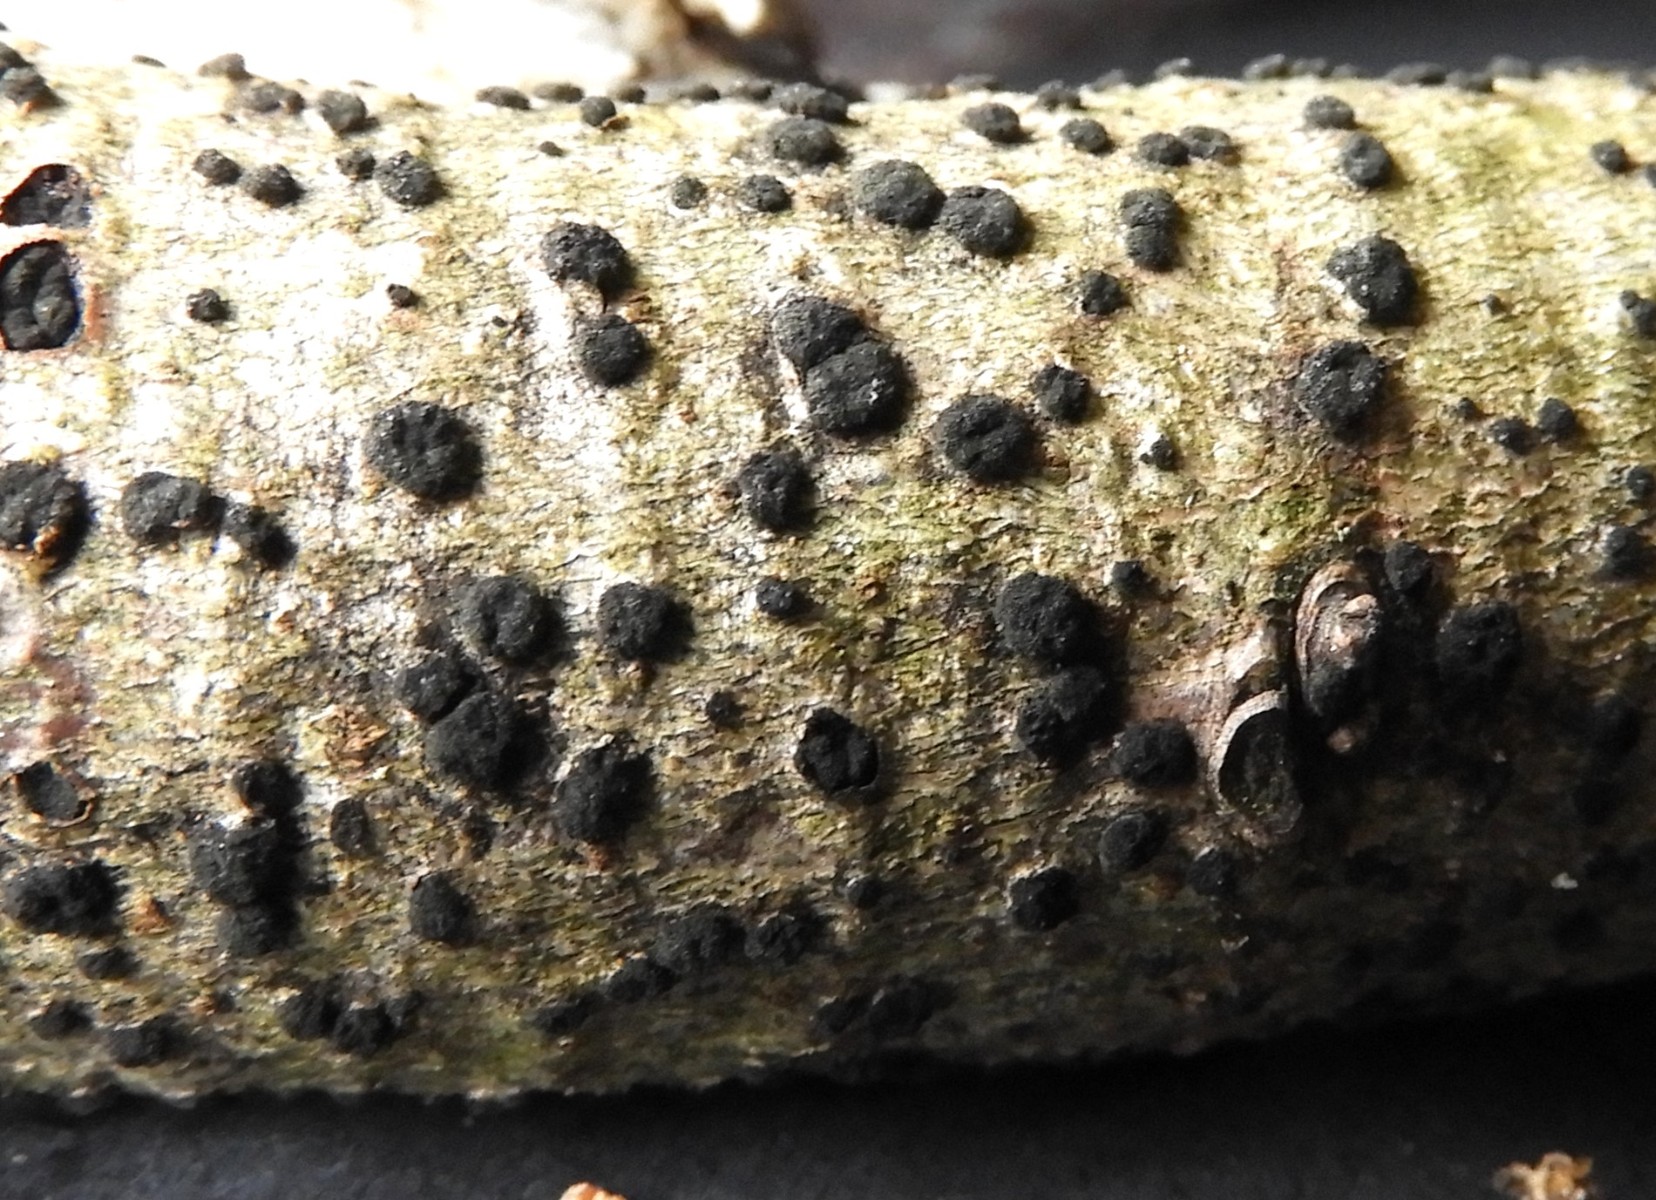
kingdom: Fungi
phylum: Ascomycota
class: Dothideomycetes
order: Pleosporales
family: Massarinaceae
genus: Helminthosporium
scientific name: Helminthosporium oligosporum
